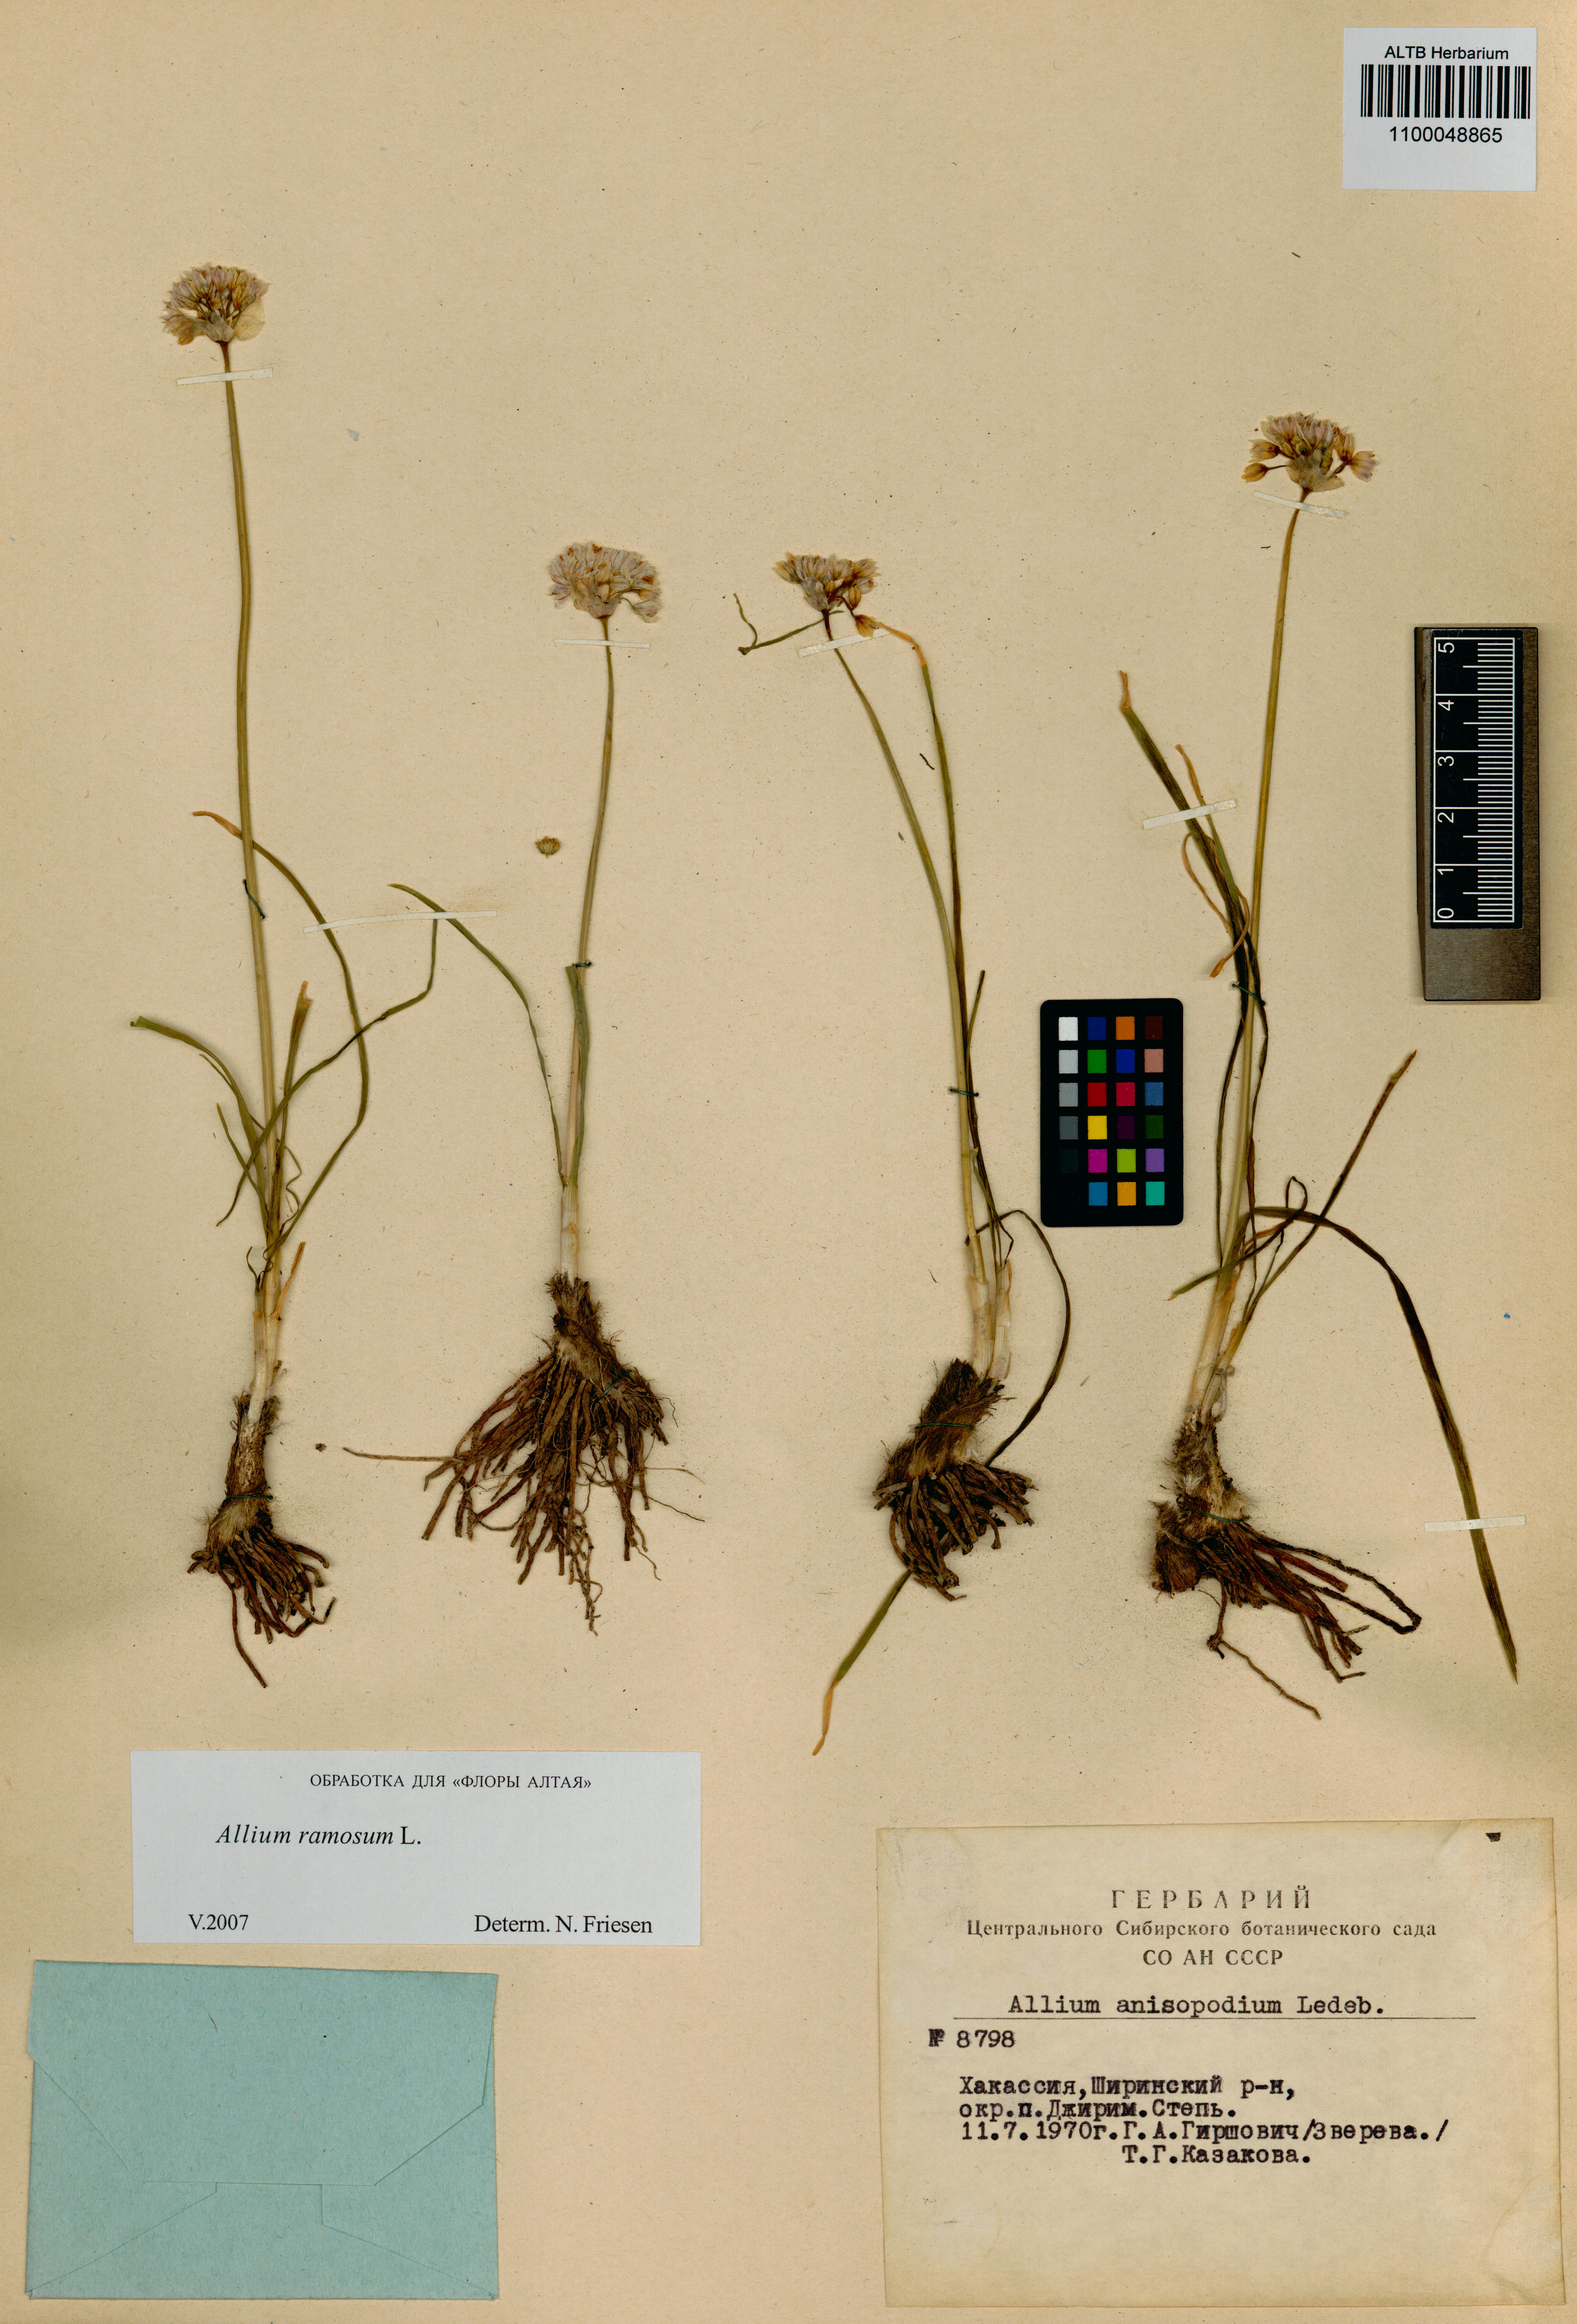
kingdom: Plantae
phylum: Tracheophyta
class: Liliopsida
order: Asparagales
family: Amaryllidaceae
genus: Allium
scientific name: Allium ramosum
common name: Fragrant garlic
